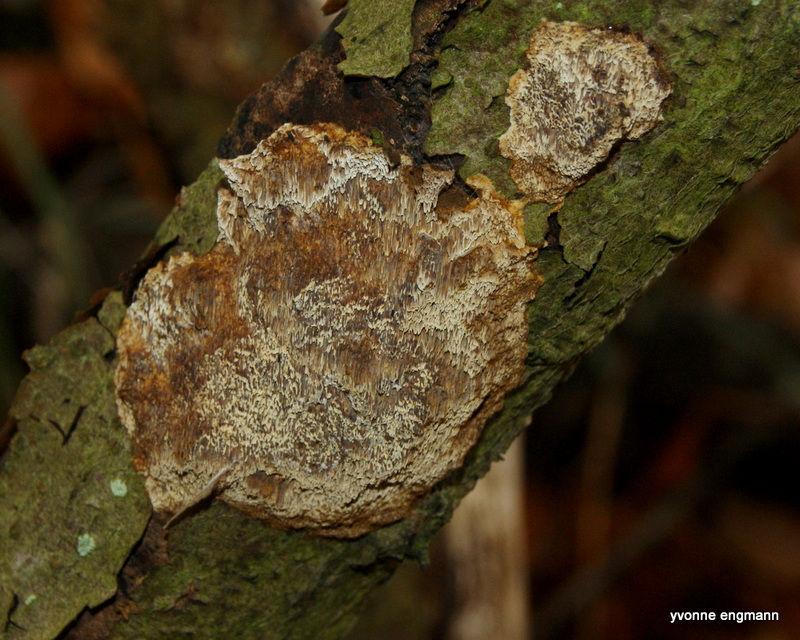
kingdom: Fungi
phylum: Basidiomycota
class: Agaricomycetes
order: Hymenochaetales
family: Hymenochaetaceae
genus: Mensularia
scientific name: Mensularia nodulosa
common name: bøge-spejlporesvamp
